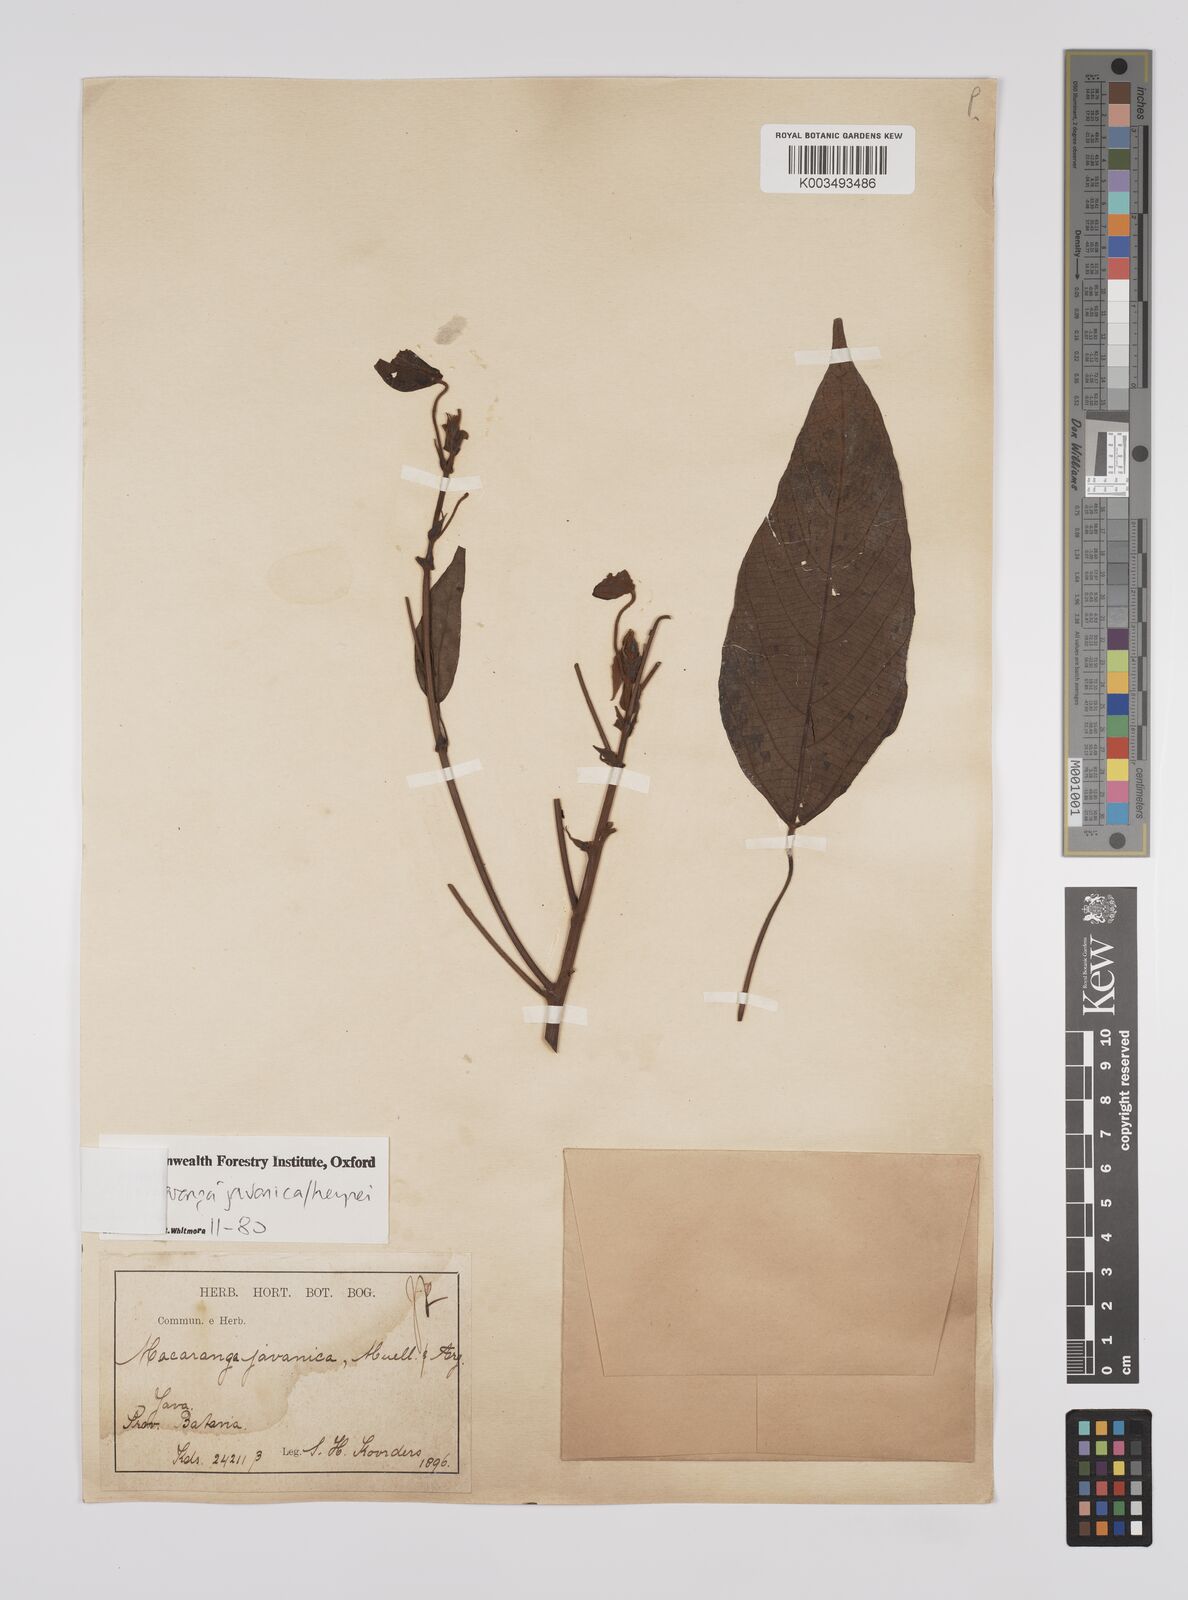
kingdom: Plantae
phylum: Tracheophyta
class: Magnoliopsida
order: Malpighiales
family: Euphorbiaceae
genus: Macaranga
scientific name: Macaranga javanica
